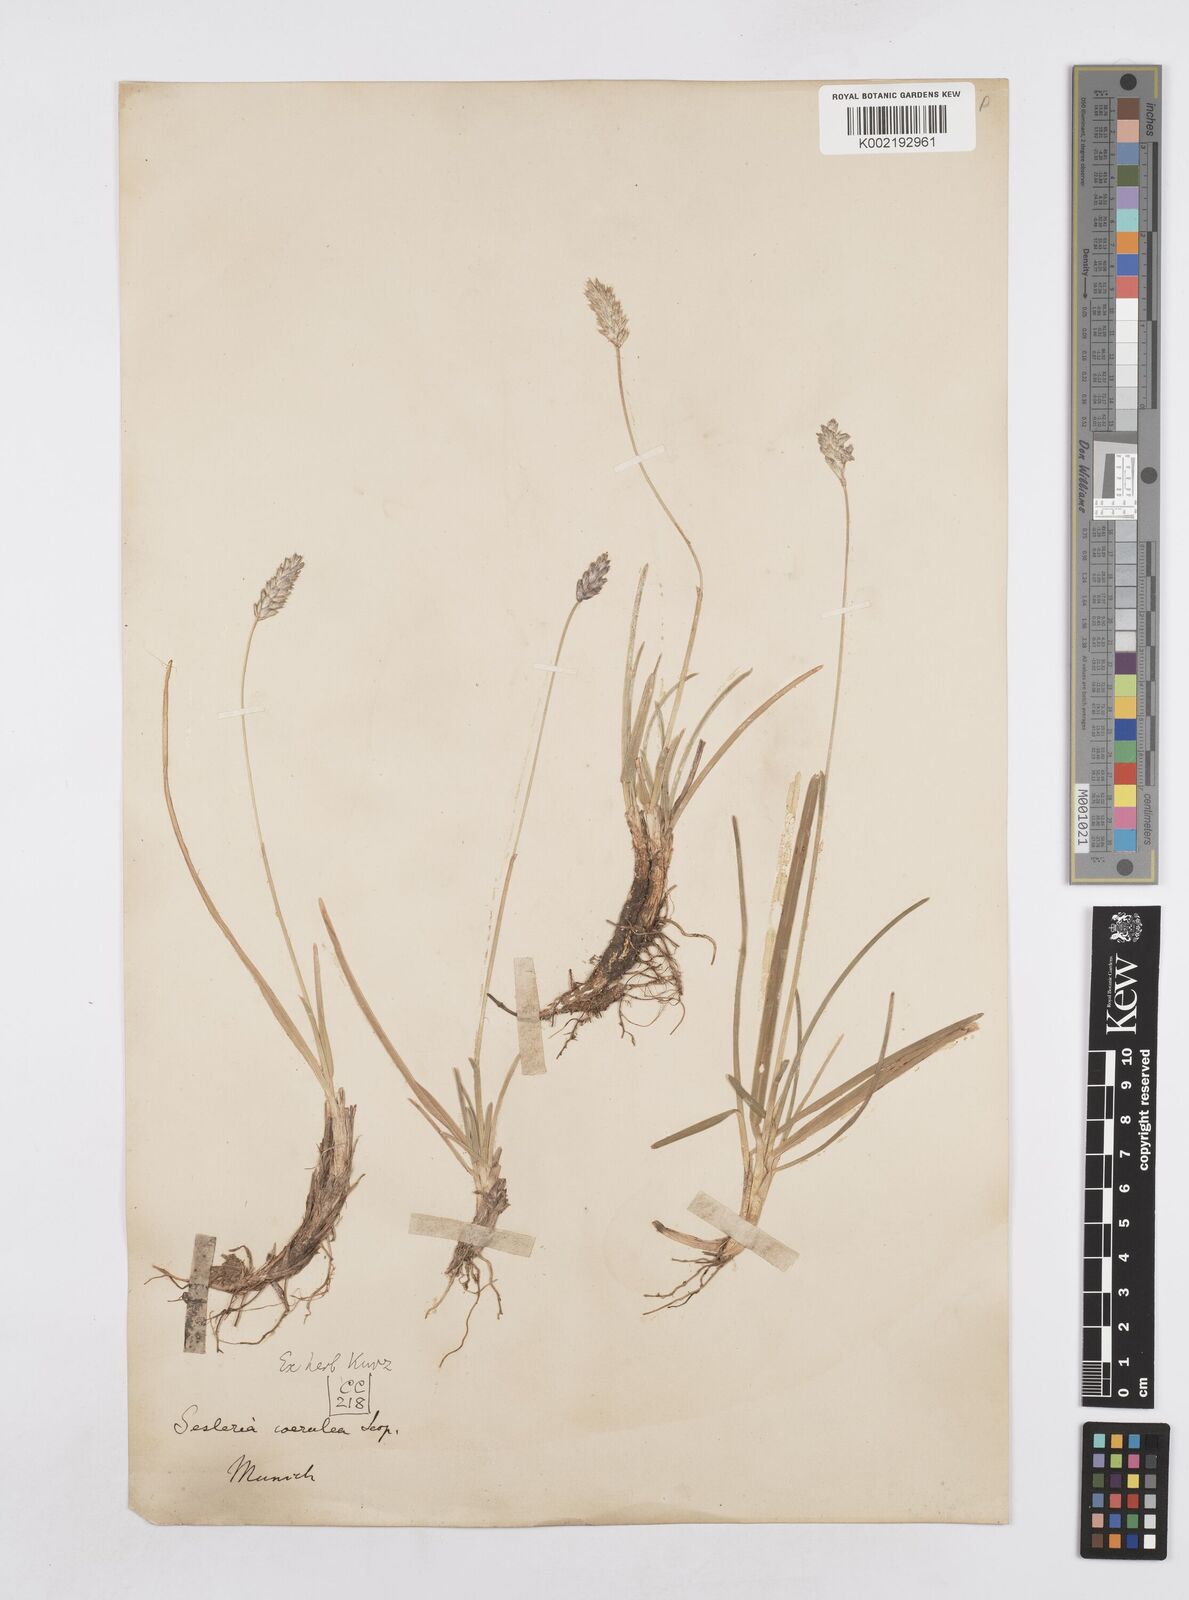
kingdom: Plantae
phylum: Tracheophyta
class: Liliopsida
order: Poales
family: Poaceae
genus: Sesleria
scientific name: Sesleria caerulea
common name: Blue moor-grass
